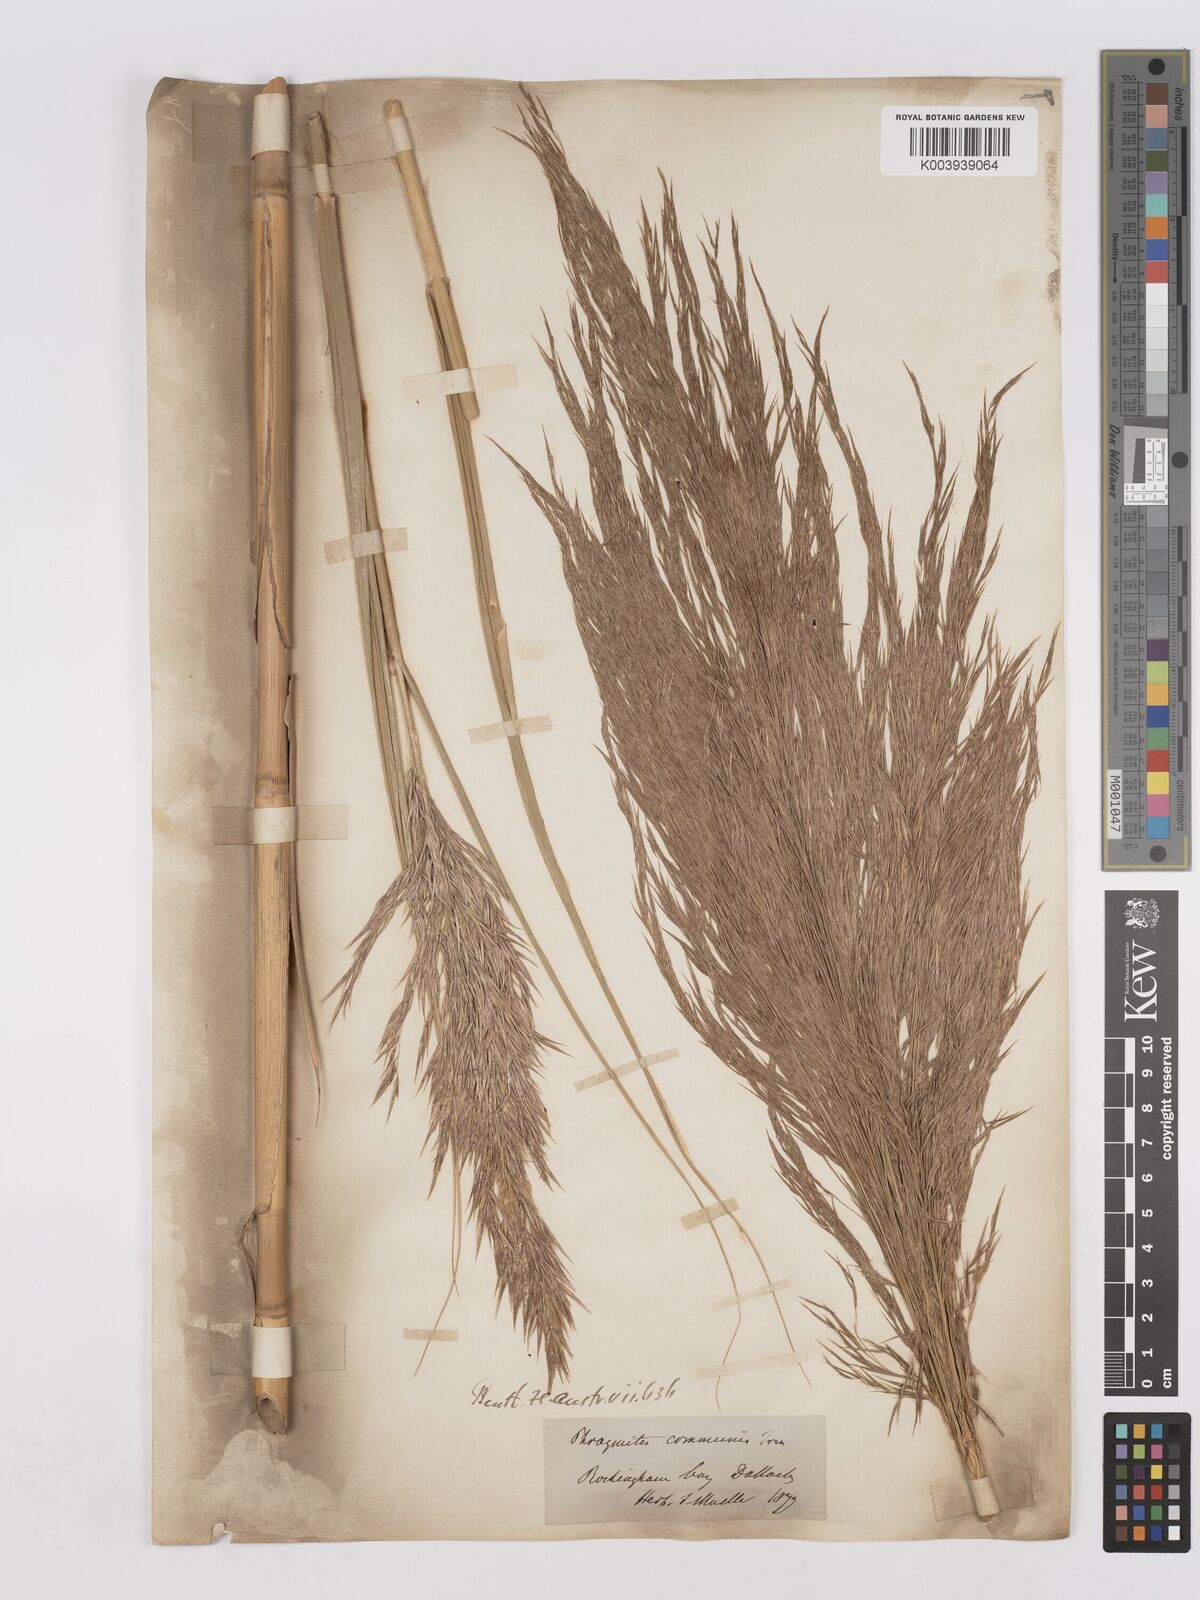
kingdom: Plantae
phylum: Tracheophyta
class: Liliopsida
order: Poales
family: Poaceae
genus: Phragmites
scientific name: Phragmites karka
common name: Tropical reed
